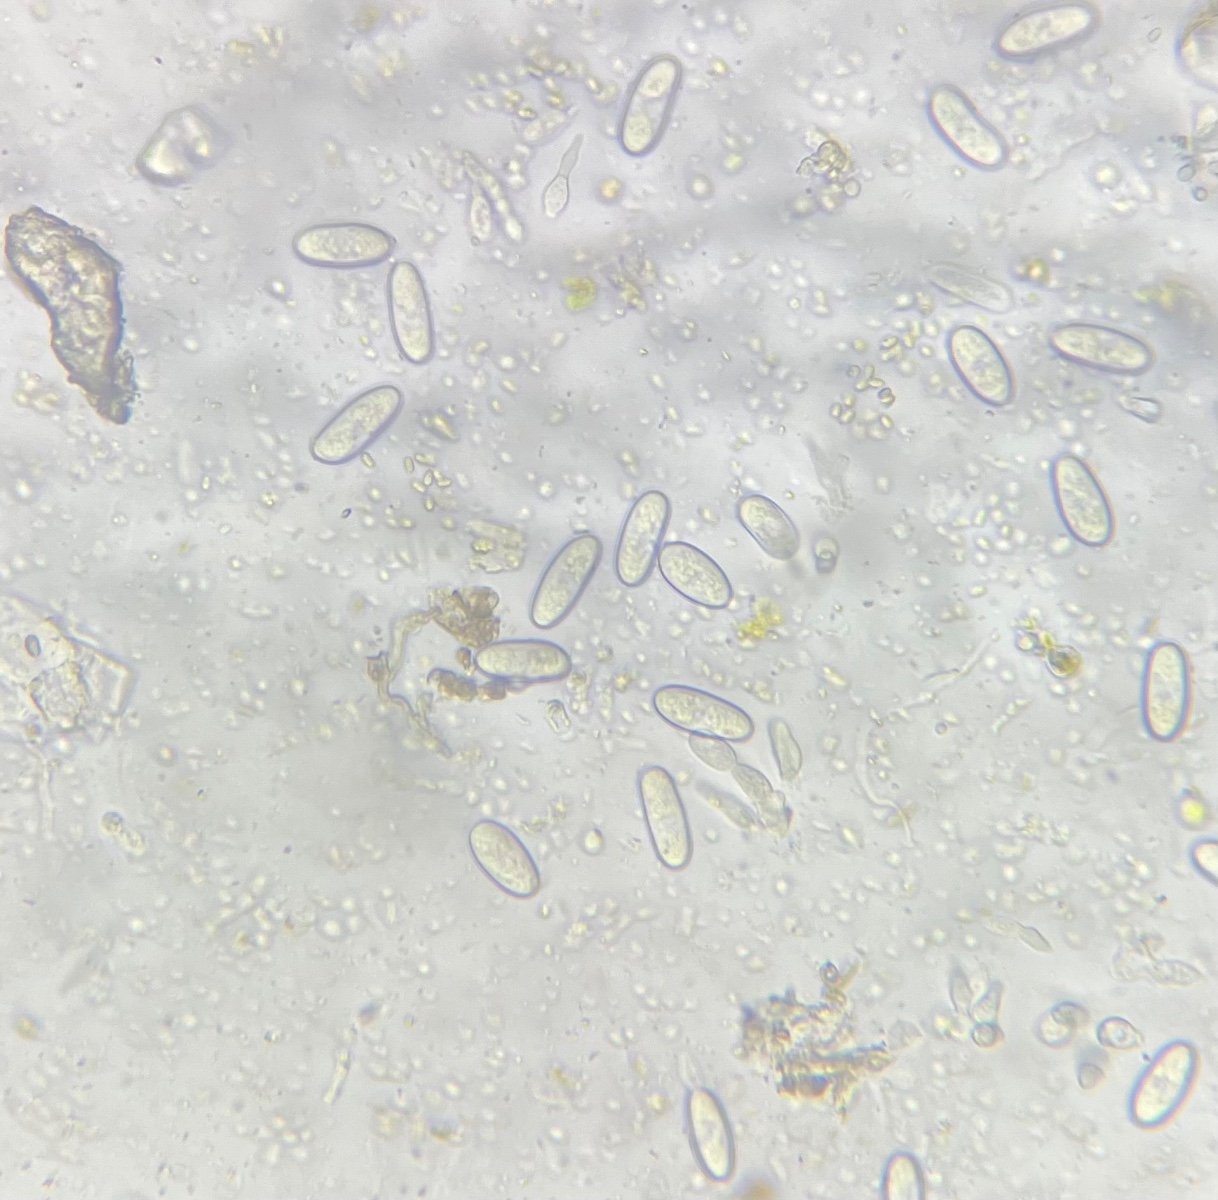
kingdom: Fungi
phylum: Ascomycota
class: Sordariomycetes
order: Diaporthales
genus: Botryodiplodia
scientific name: Botryodiplodia fraxini
